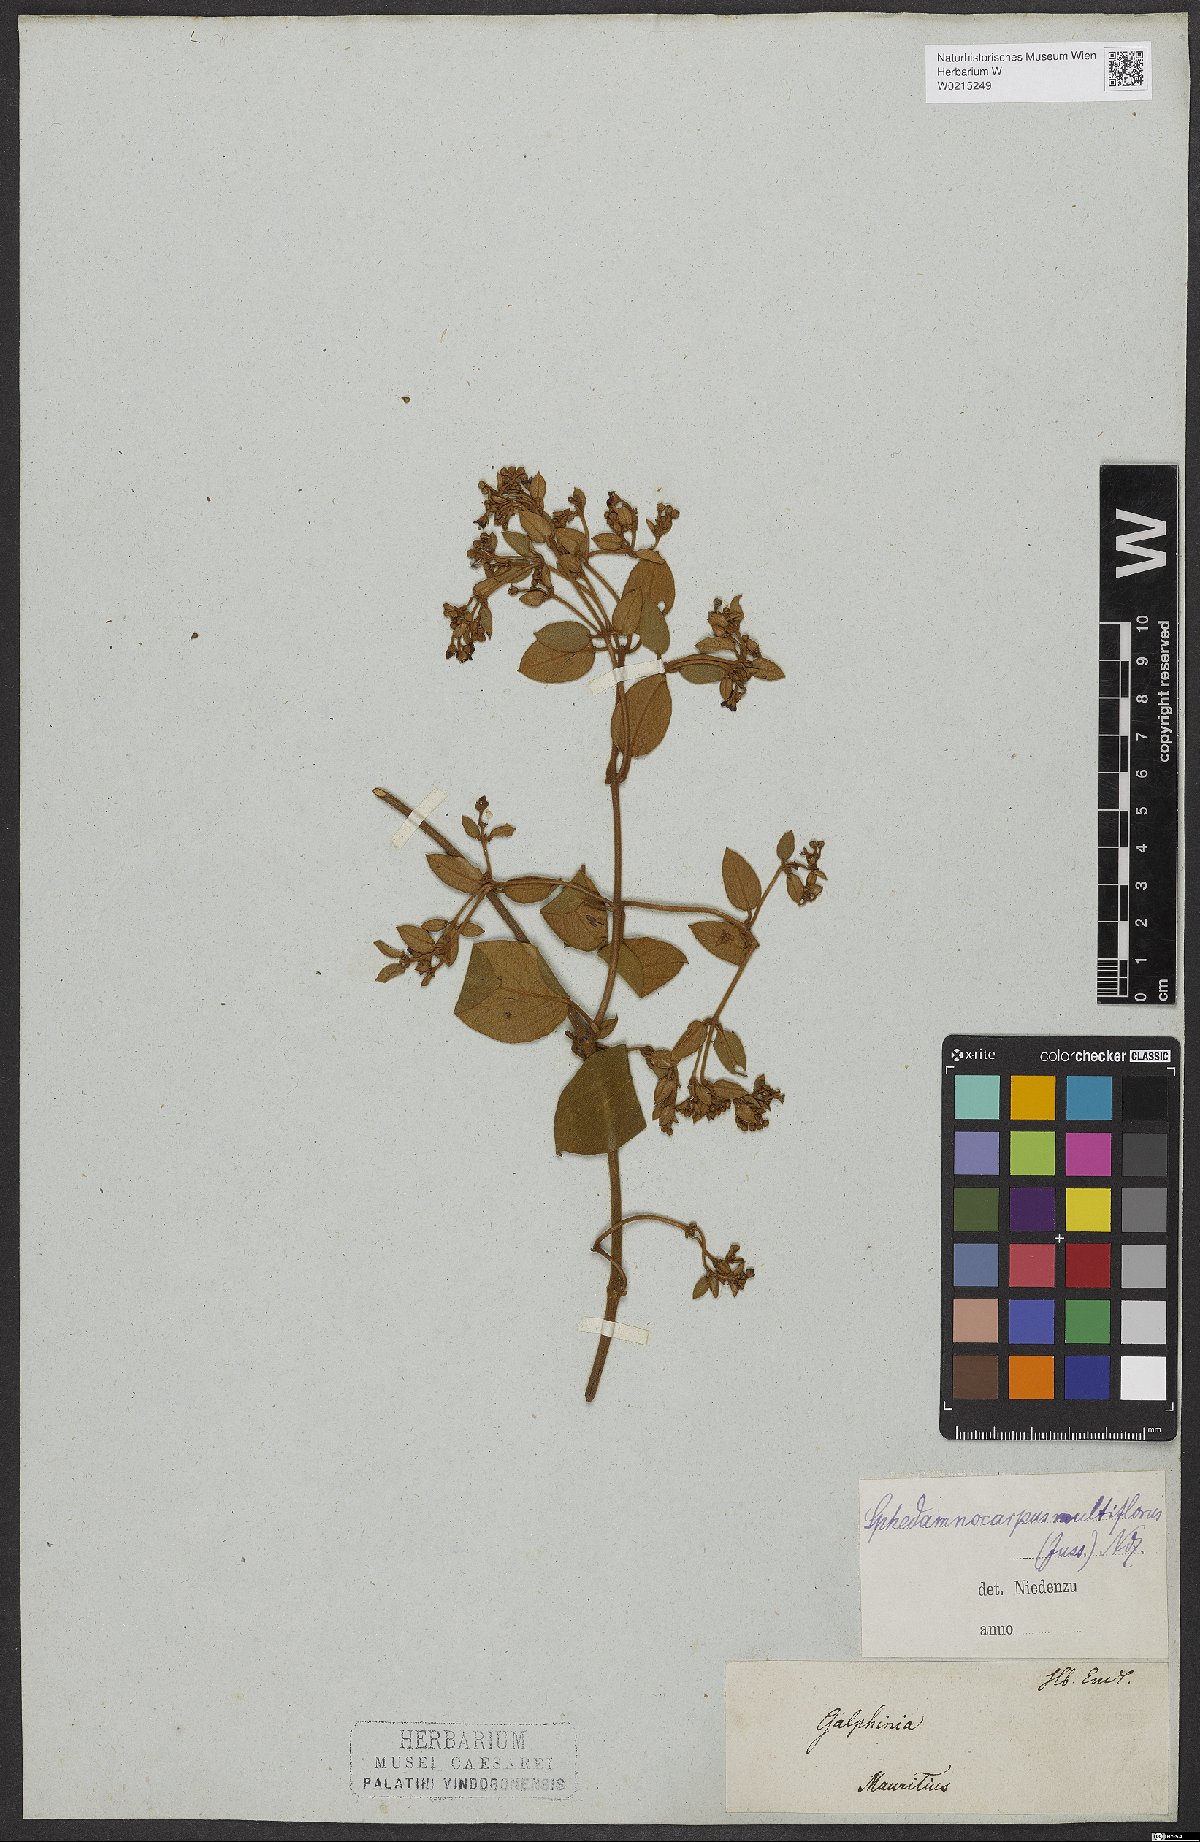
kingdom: Plantae
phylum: Tracheophyta
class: Magnoliopsida
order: Malpighiales
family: Malpighiaceae
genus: Sphedamnocarpus
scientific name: Sphedamnocarpus multiflorus
